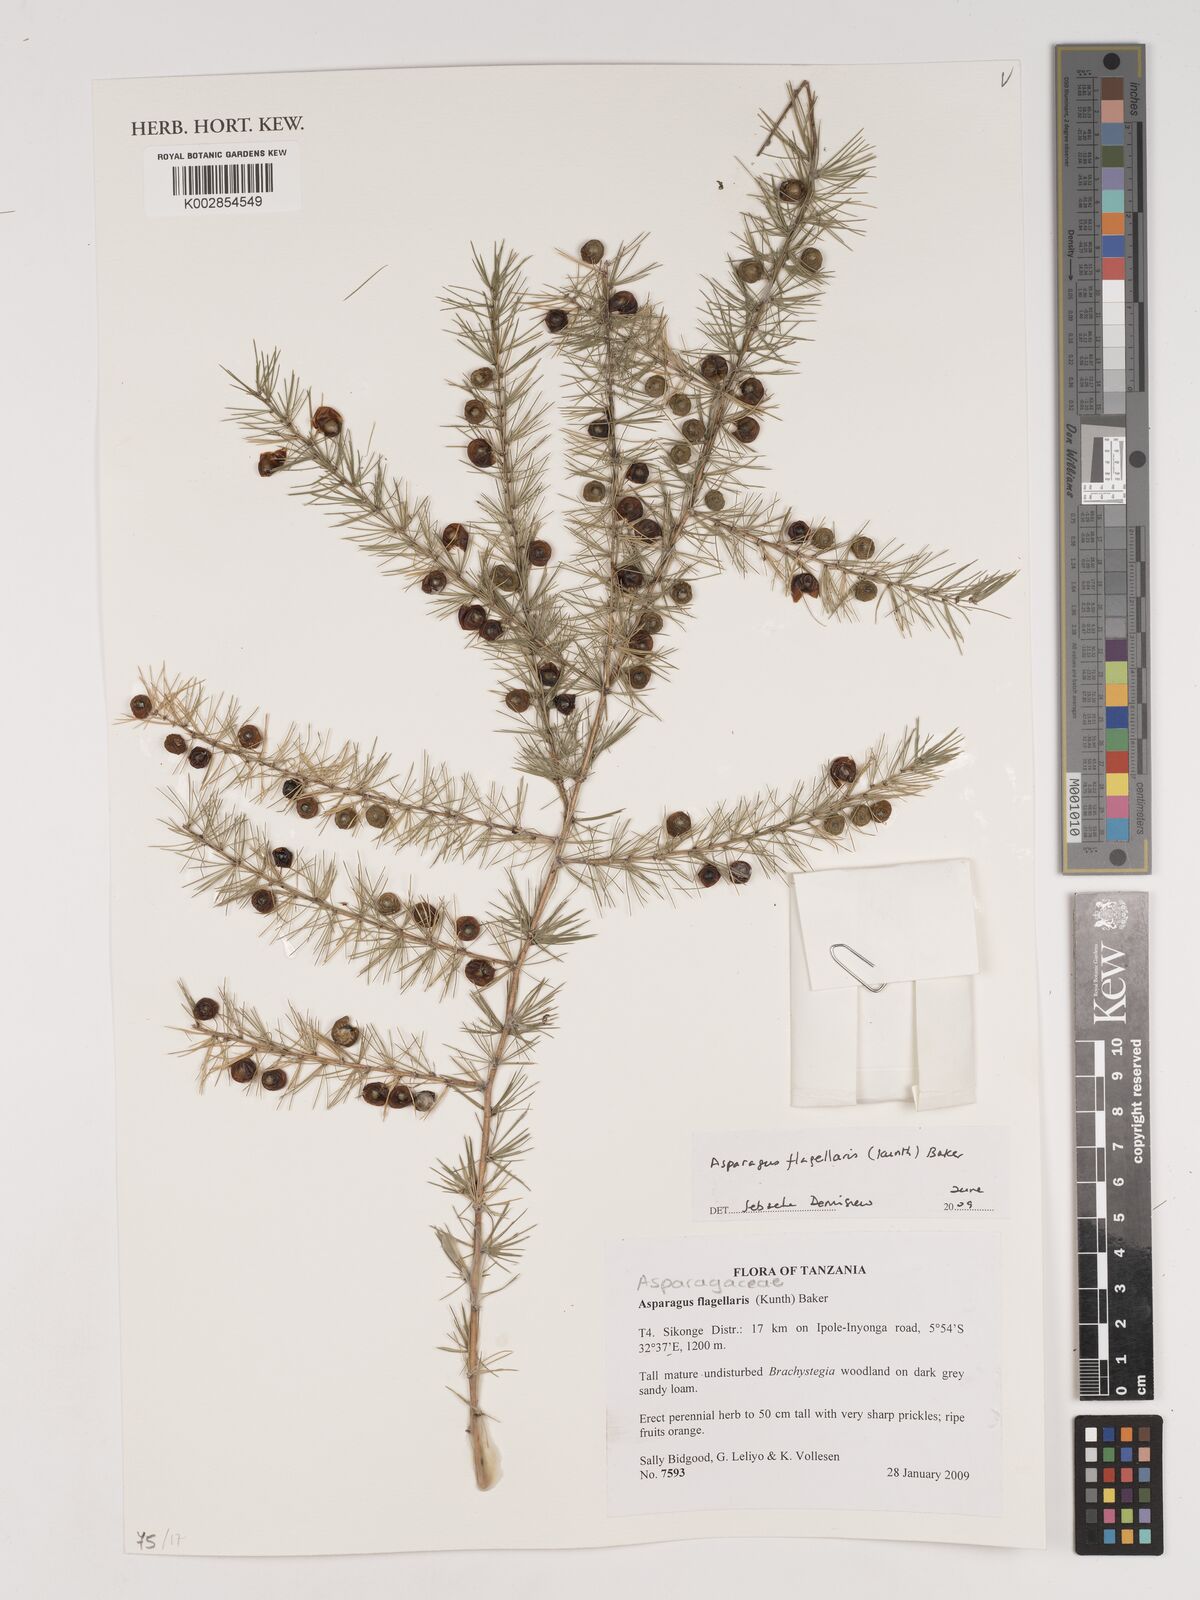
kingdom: Plantae
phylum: Tracheophyta
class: Liliopsida
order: Asparagales
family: Asparagaceae
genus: Asparagus
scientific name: Asparagus flagellaris
